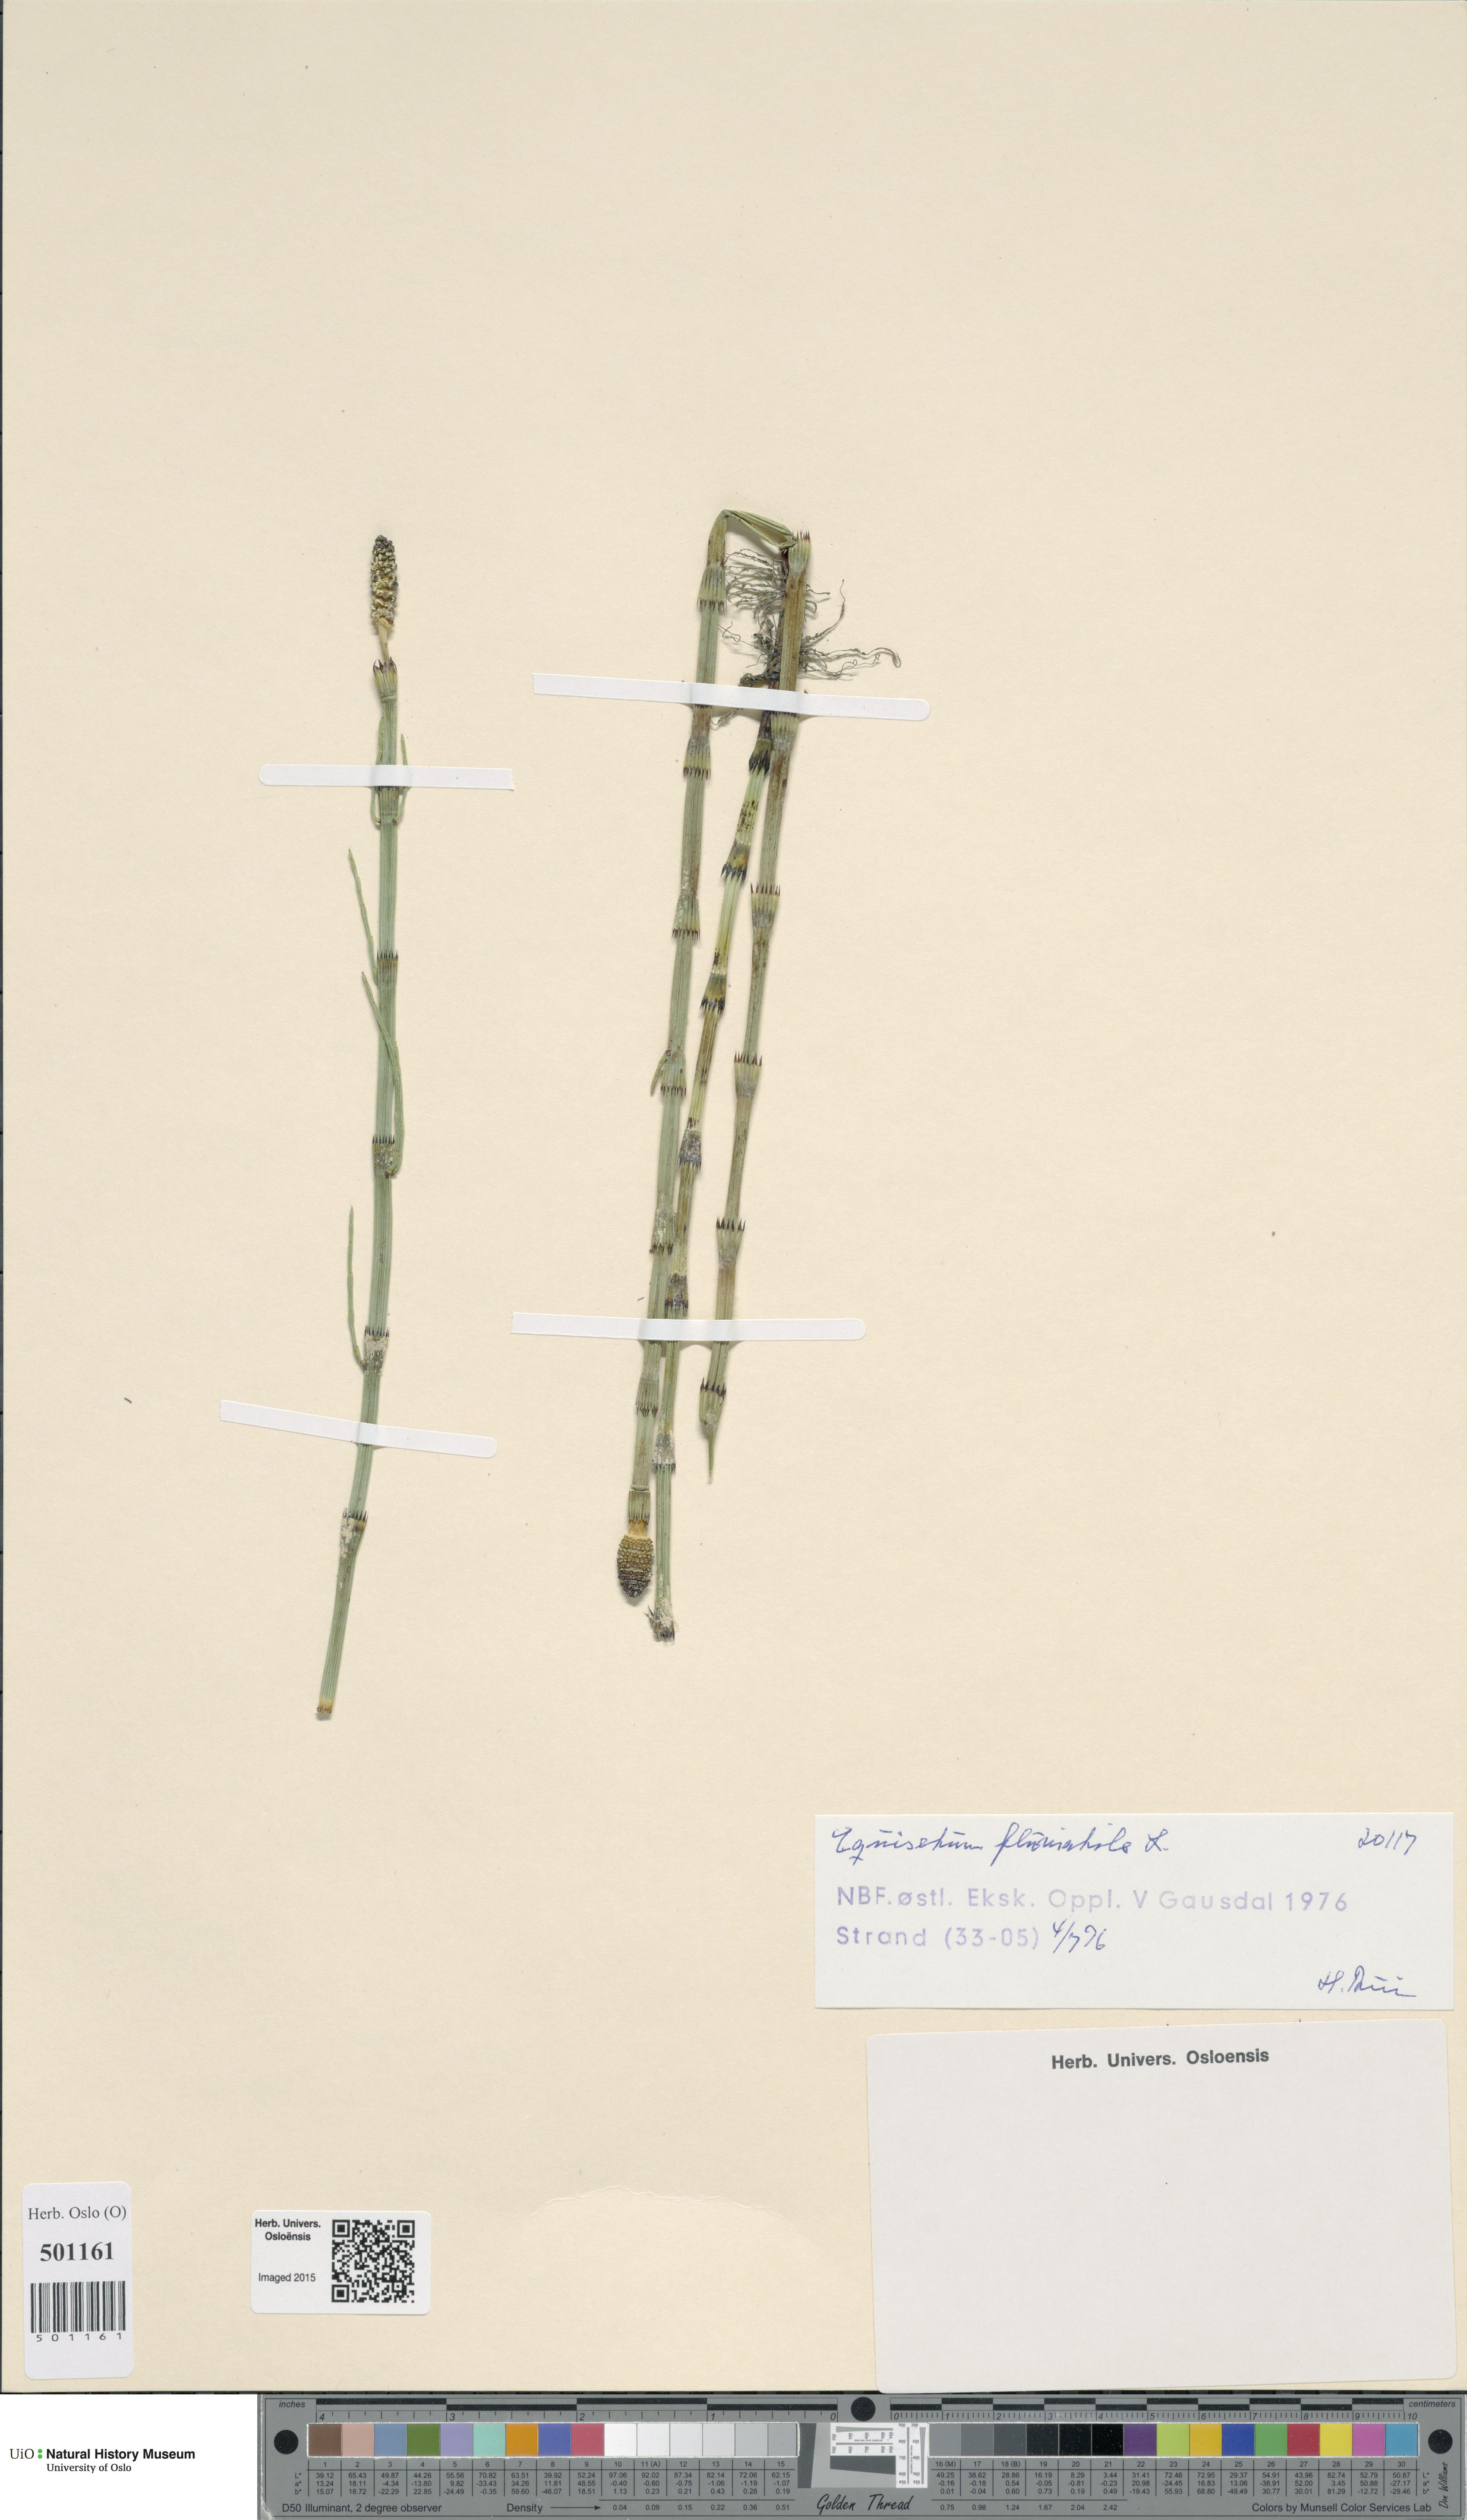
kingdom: Plantae
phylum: Tracheophyta
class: Polypodiopsida
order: Equisetales
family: Equisetaceae
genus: Equisetum
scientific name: Equisetum fluviatile
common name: Water horsetail
